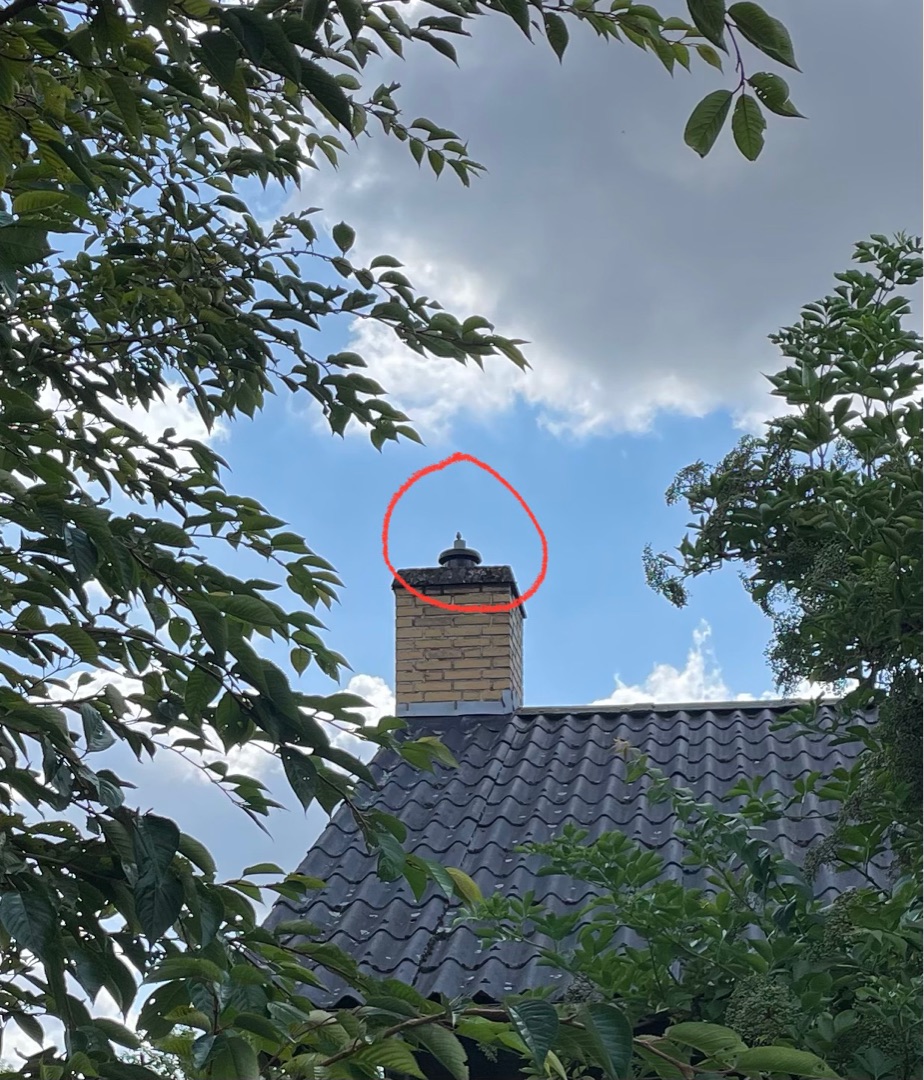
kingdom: Animalia
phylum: Chordata
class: Aves
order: Passeriformes
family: Troglodytidae
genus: Troglodytes
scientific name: Troglodytes troglodytes
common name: Gærdesmutte
